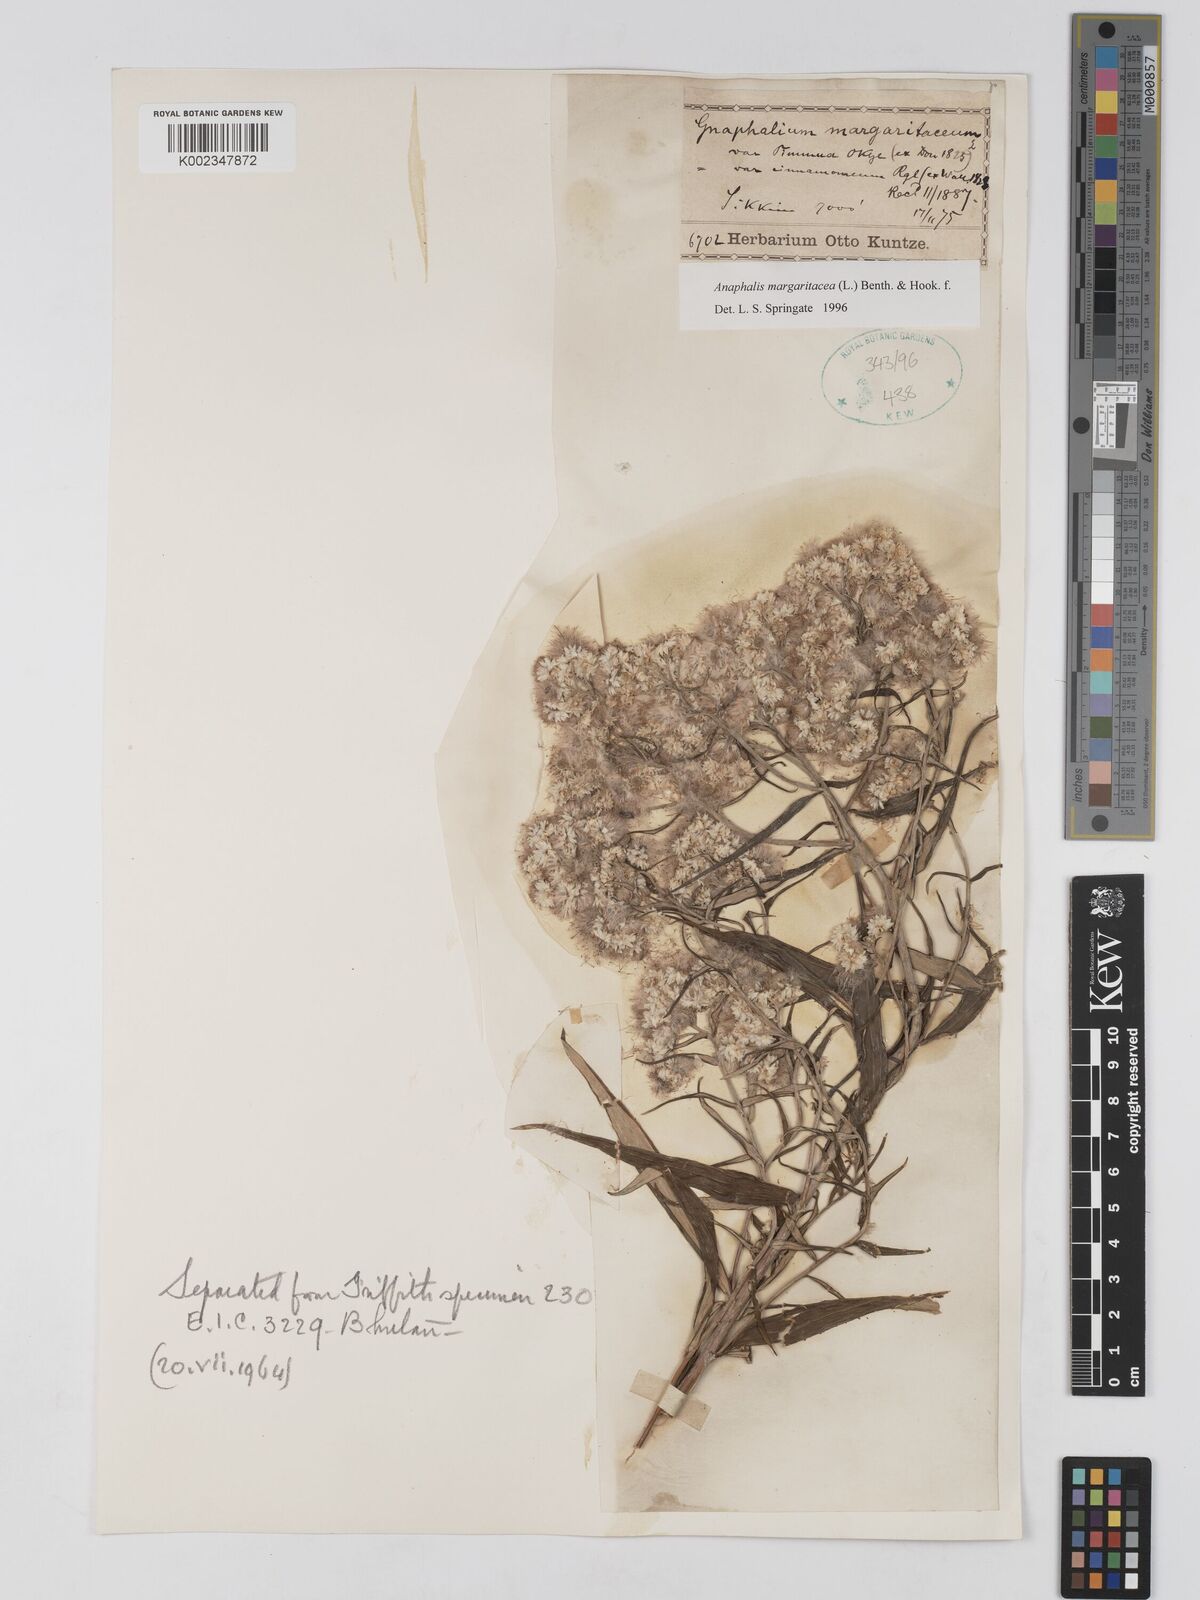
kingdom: Plantae
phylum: Tracheophyta
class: Magnoliopsida
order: Asterales
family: Asteraceae
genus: Anaphalis
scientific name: Anaphalis margaritacea
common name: Pearly everlasting
